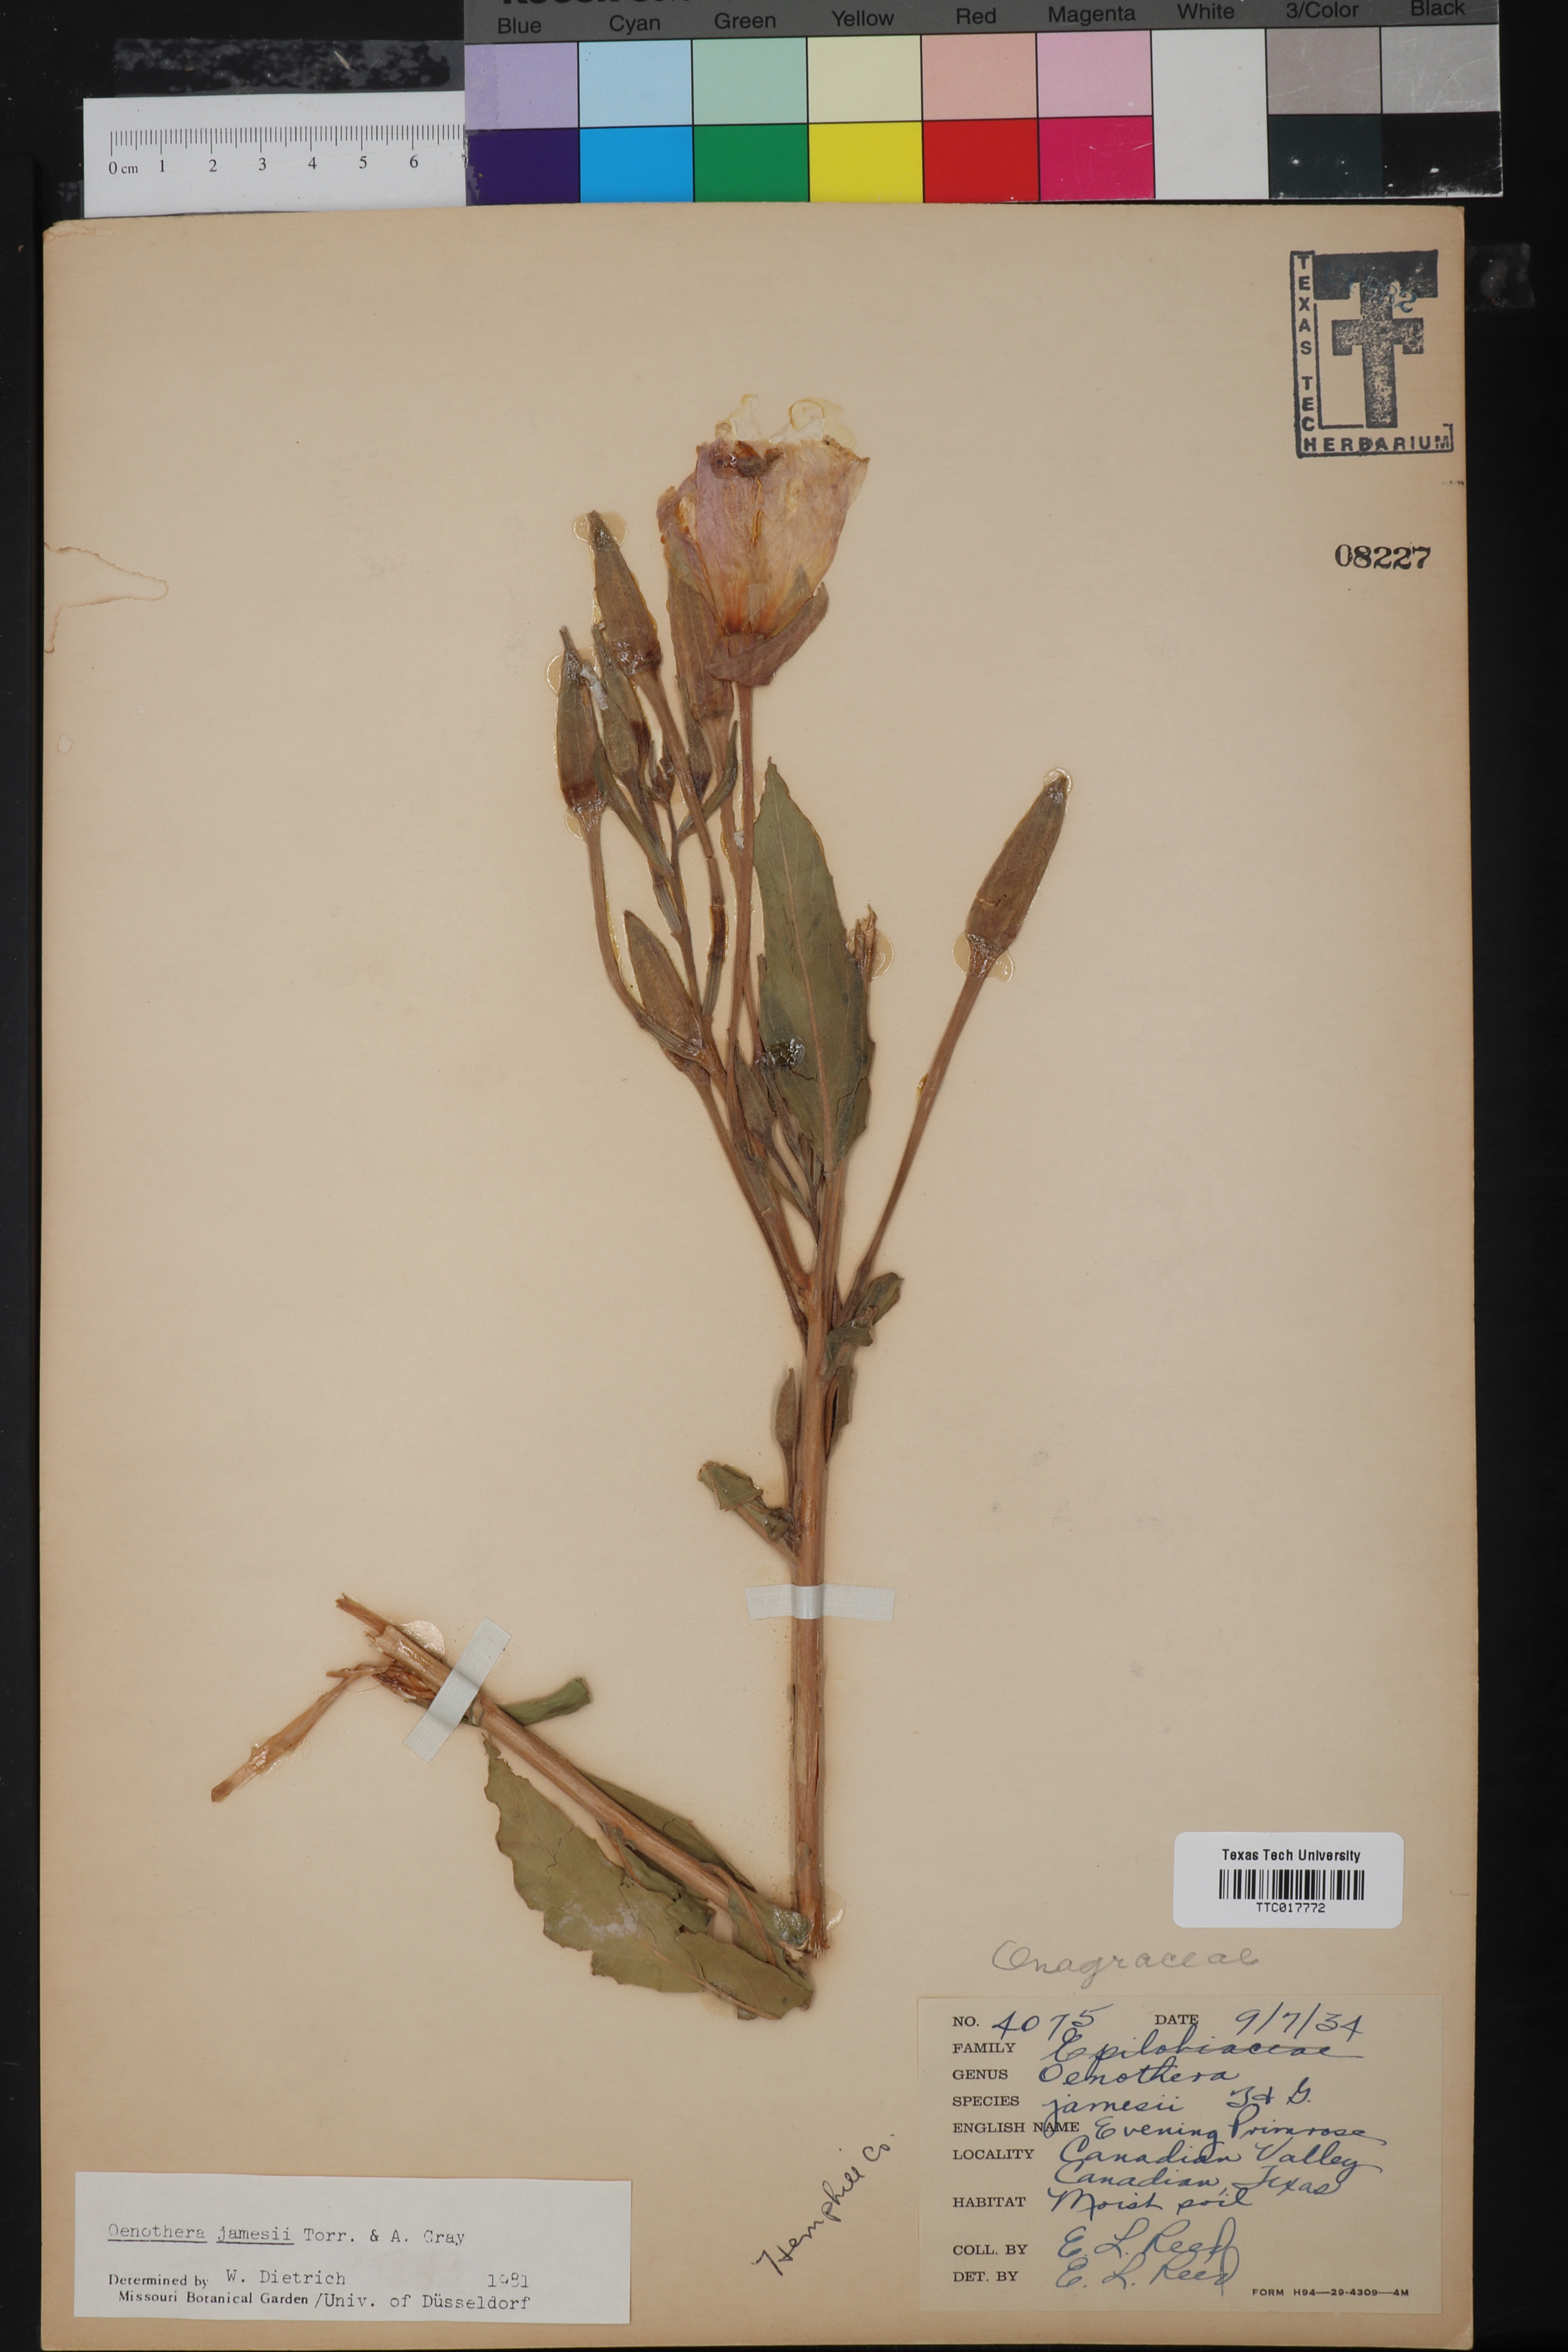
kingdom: Plantae
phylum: Tracheophyta
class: Magnoliopsida
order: Myrtales
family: Onagraceae
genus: Oenothera
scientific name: Oenothera jamesii
